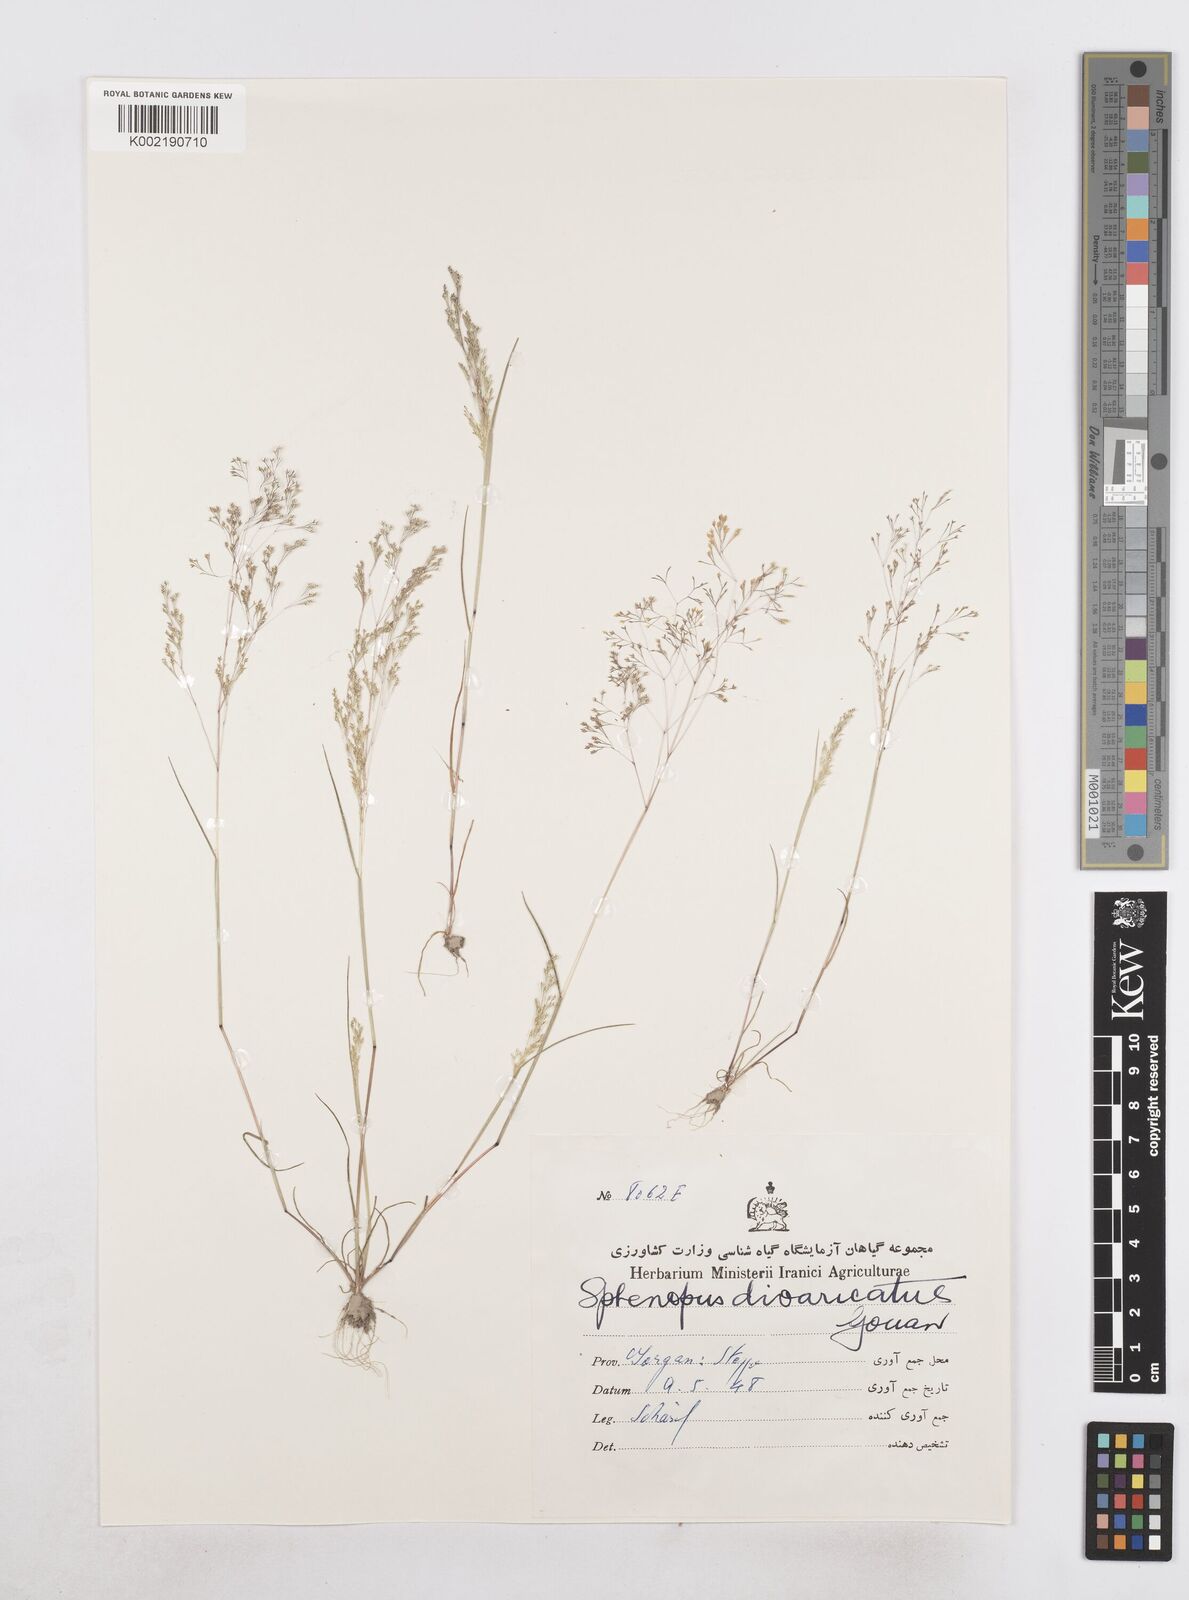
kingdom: Plantae
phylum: Tracheophyta
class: Liliopsida
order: Poales
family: Poaceae
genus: Sphenopus
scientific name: Sphenopus divaricatus
